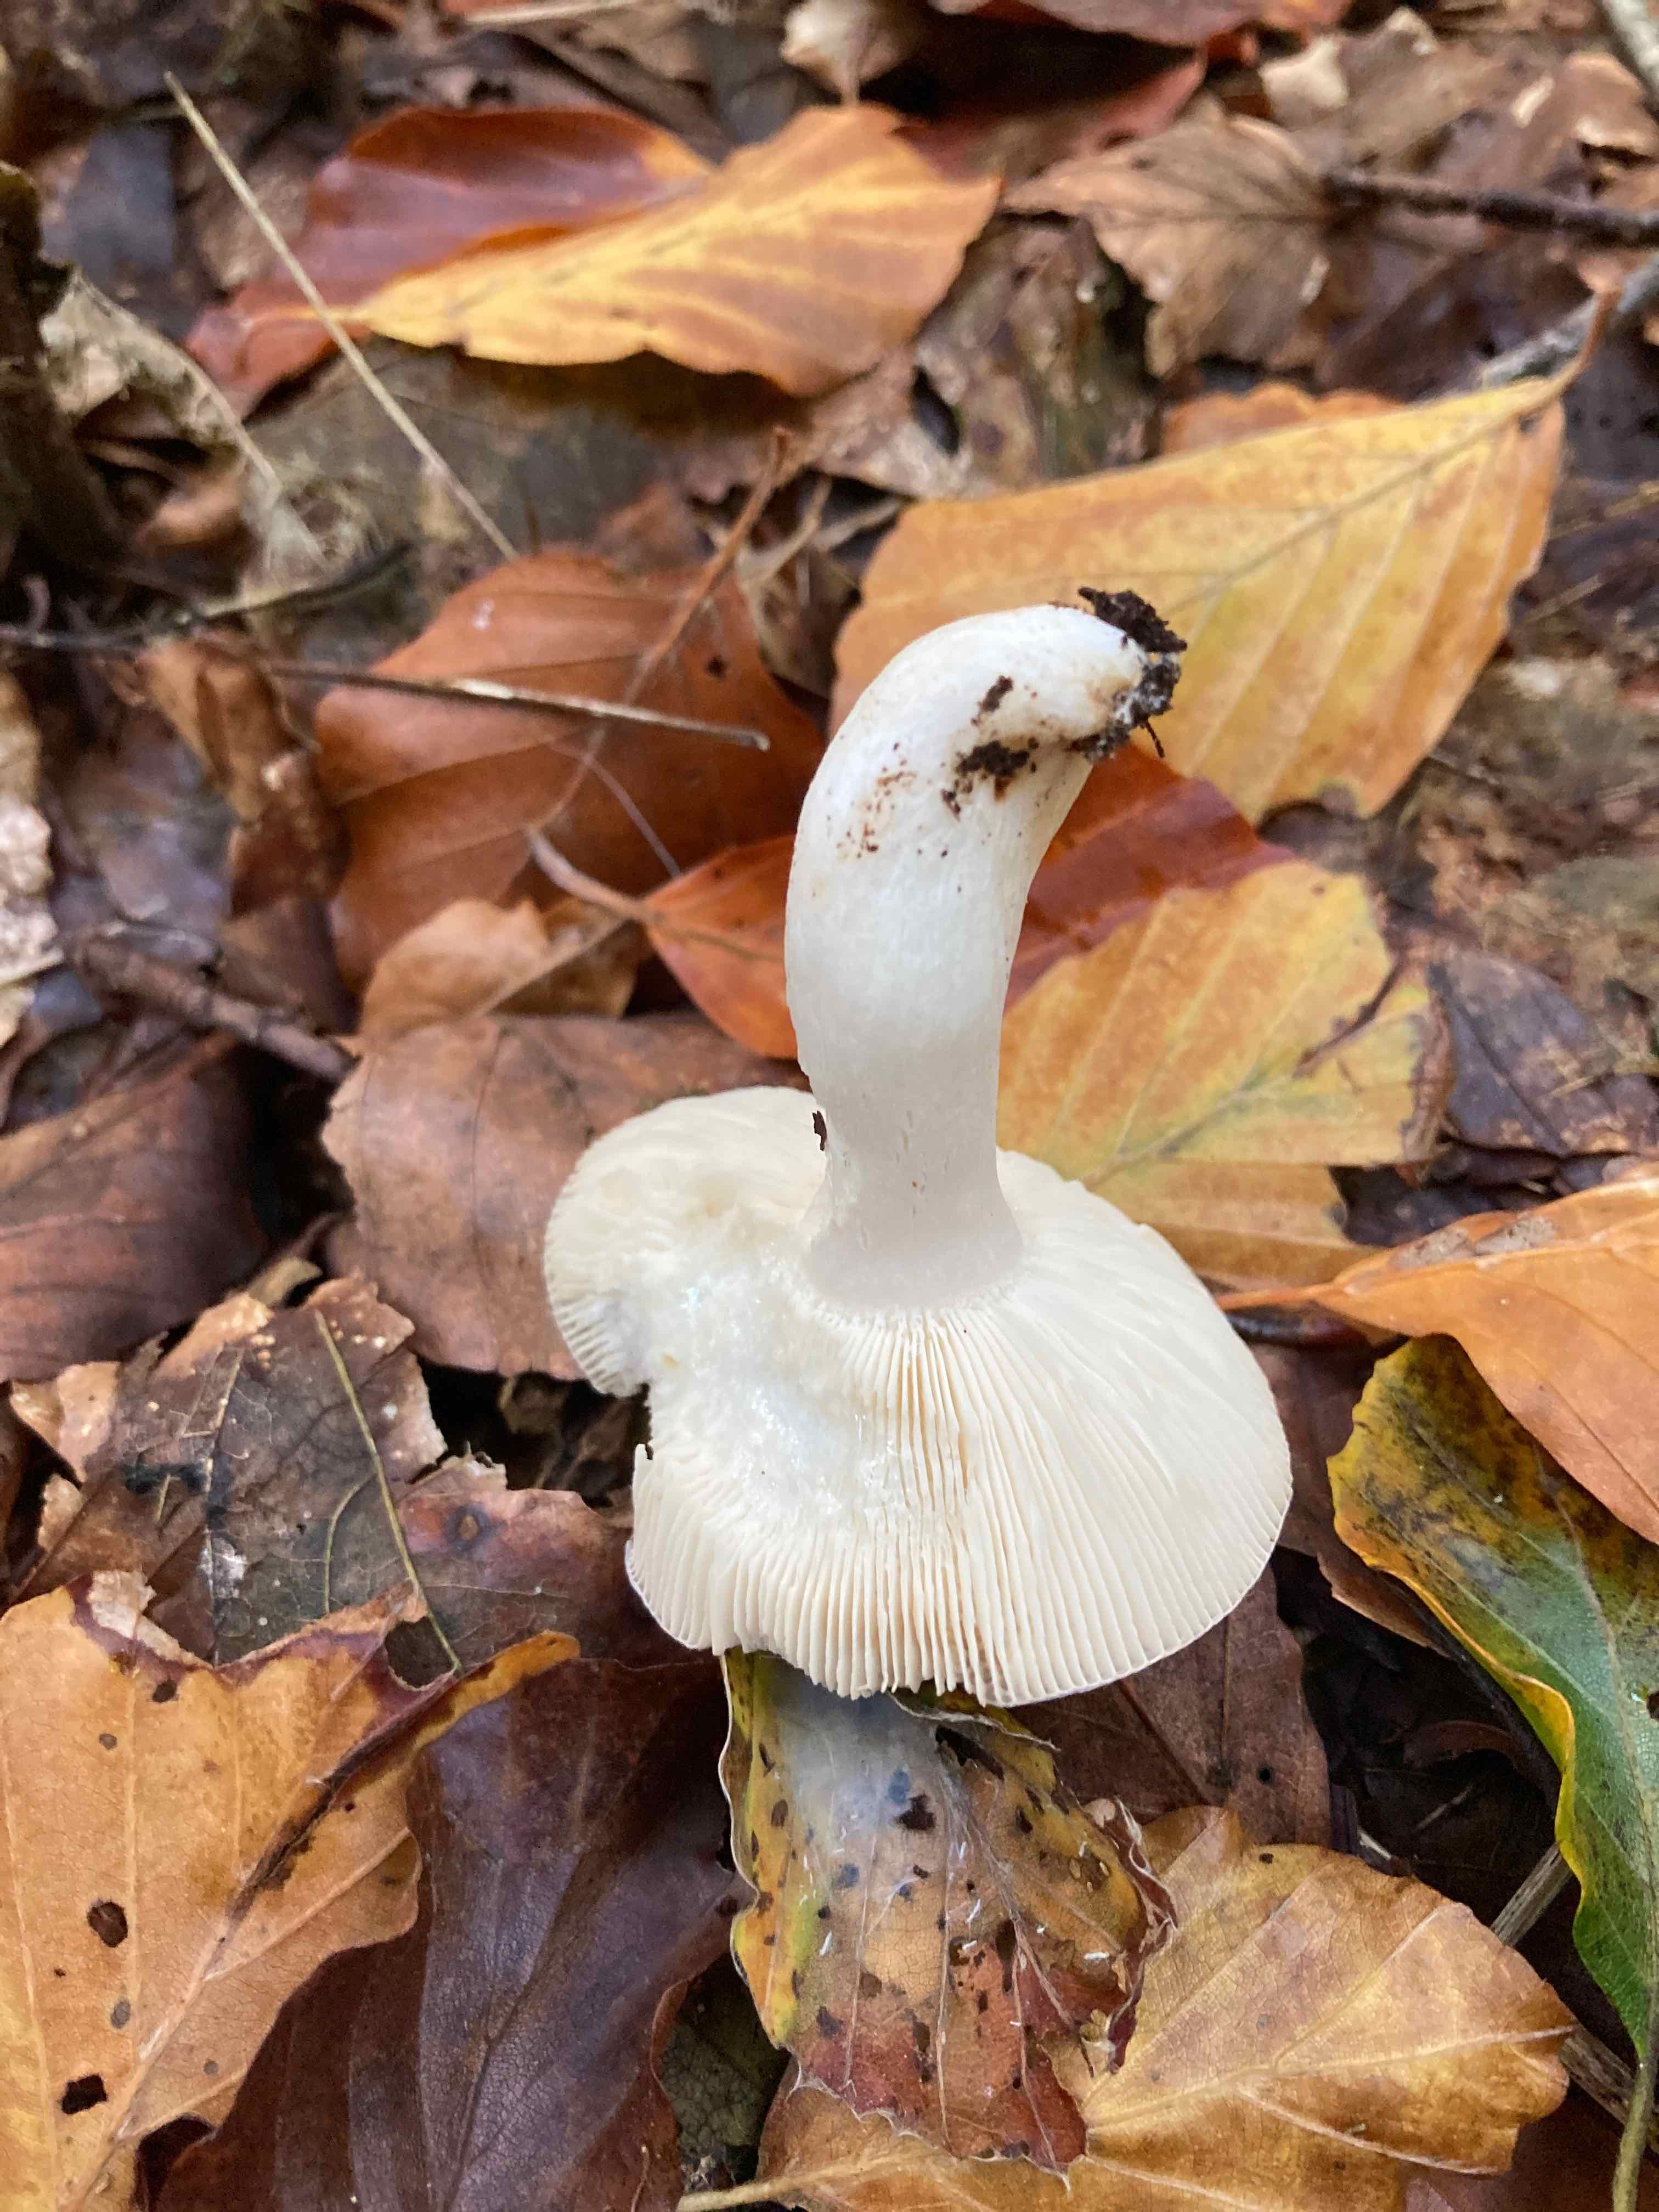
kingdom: Fungi
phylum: Basidiomycota
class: Agaricomycetes
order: Russulales
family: Russulaceae
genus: Russula
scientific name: Russula parazurea
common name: blågrå skørhat
